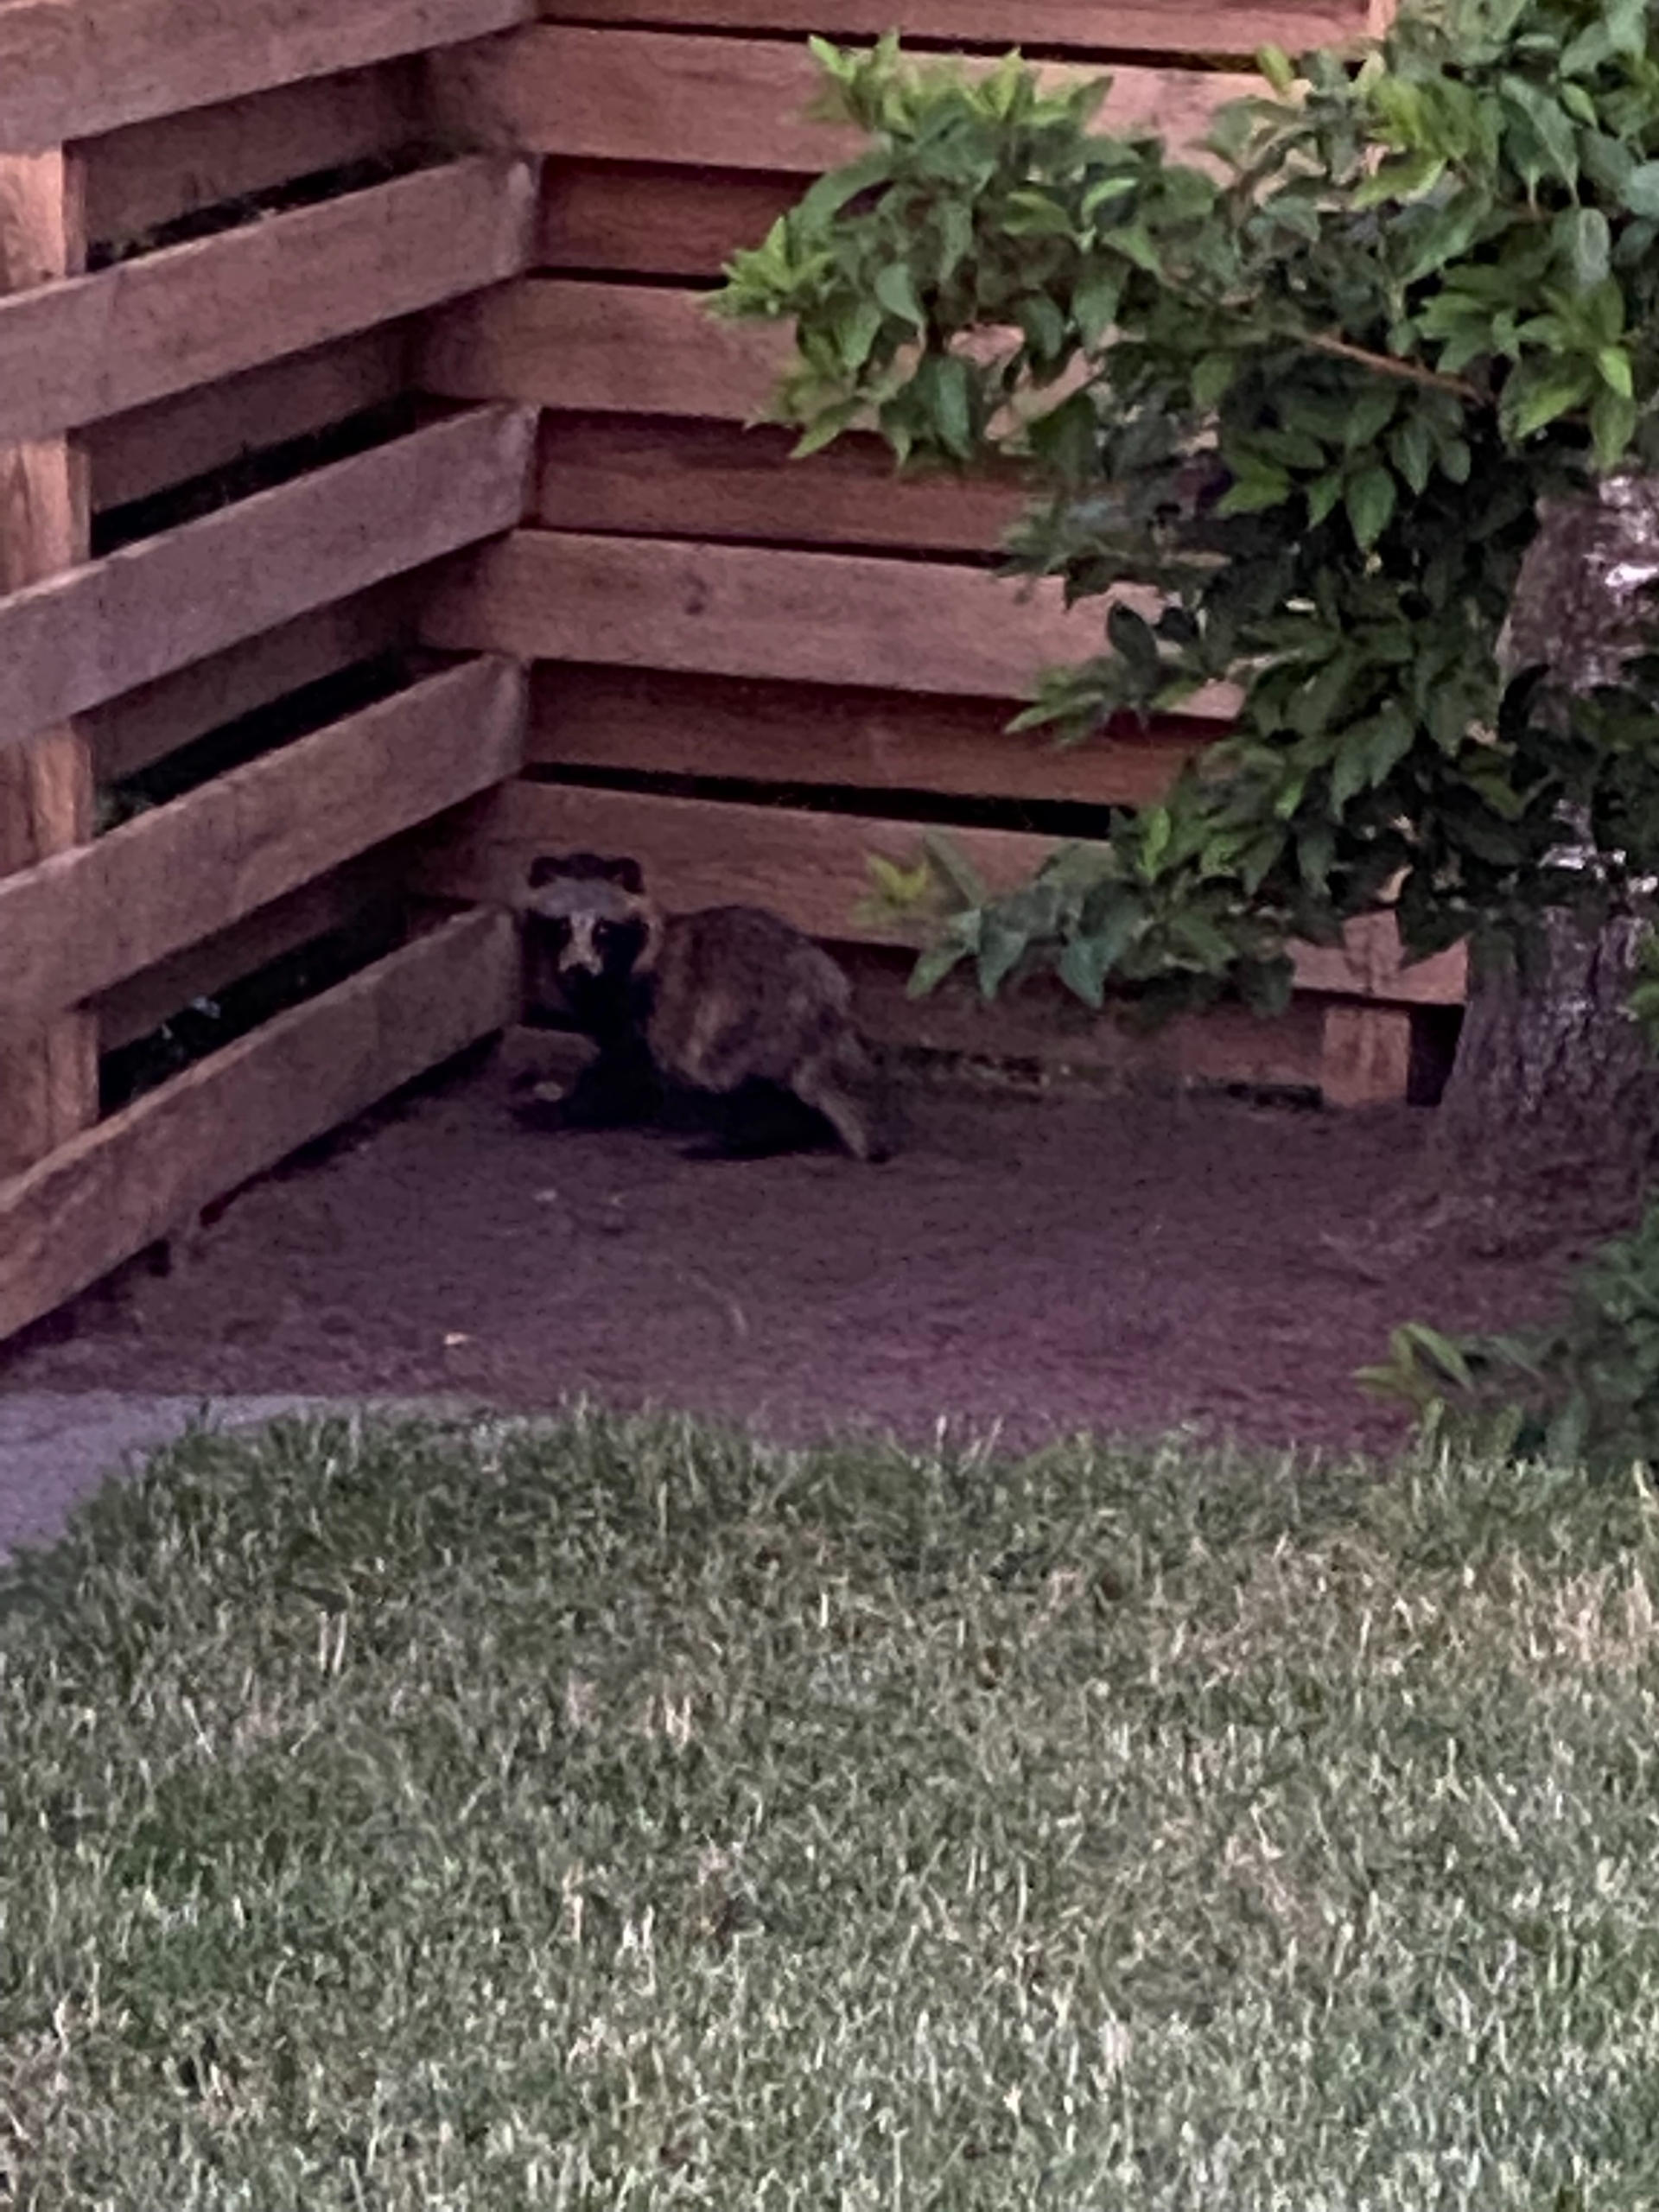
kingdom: Animalia
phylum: Chordata
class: Mammalia
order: Carnivora
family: Canidae
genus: Nyctereutes
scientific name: Nyctereutes procyonoides
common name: Mårhund
